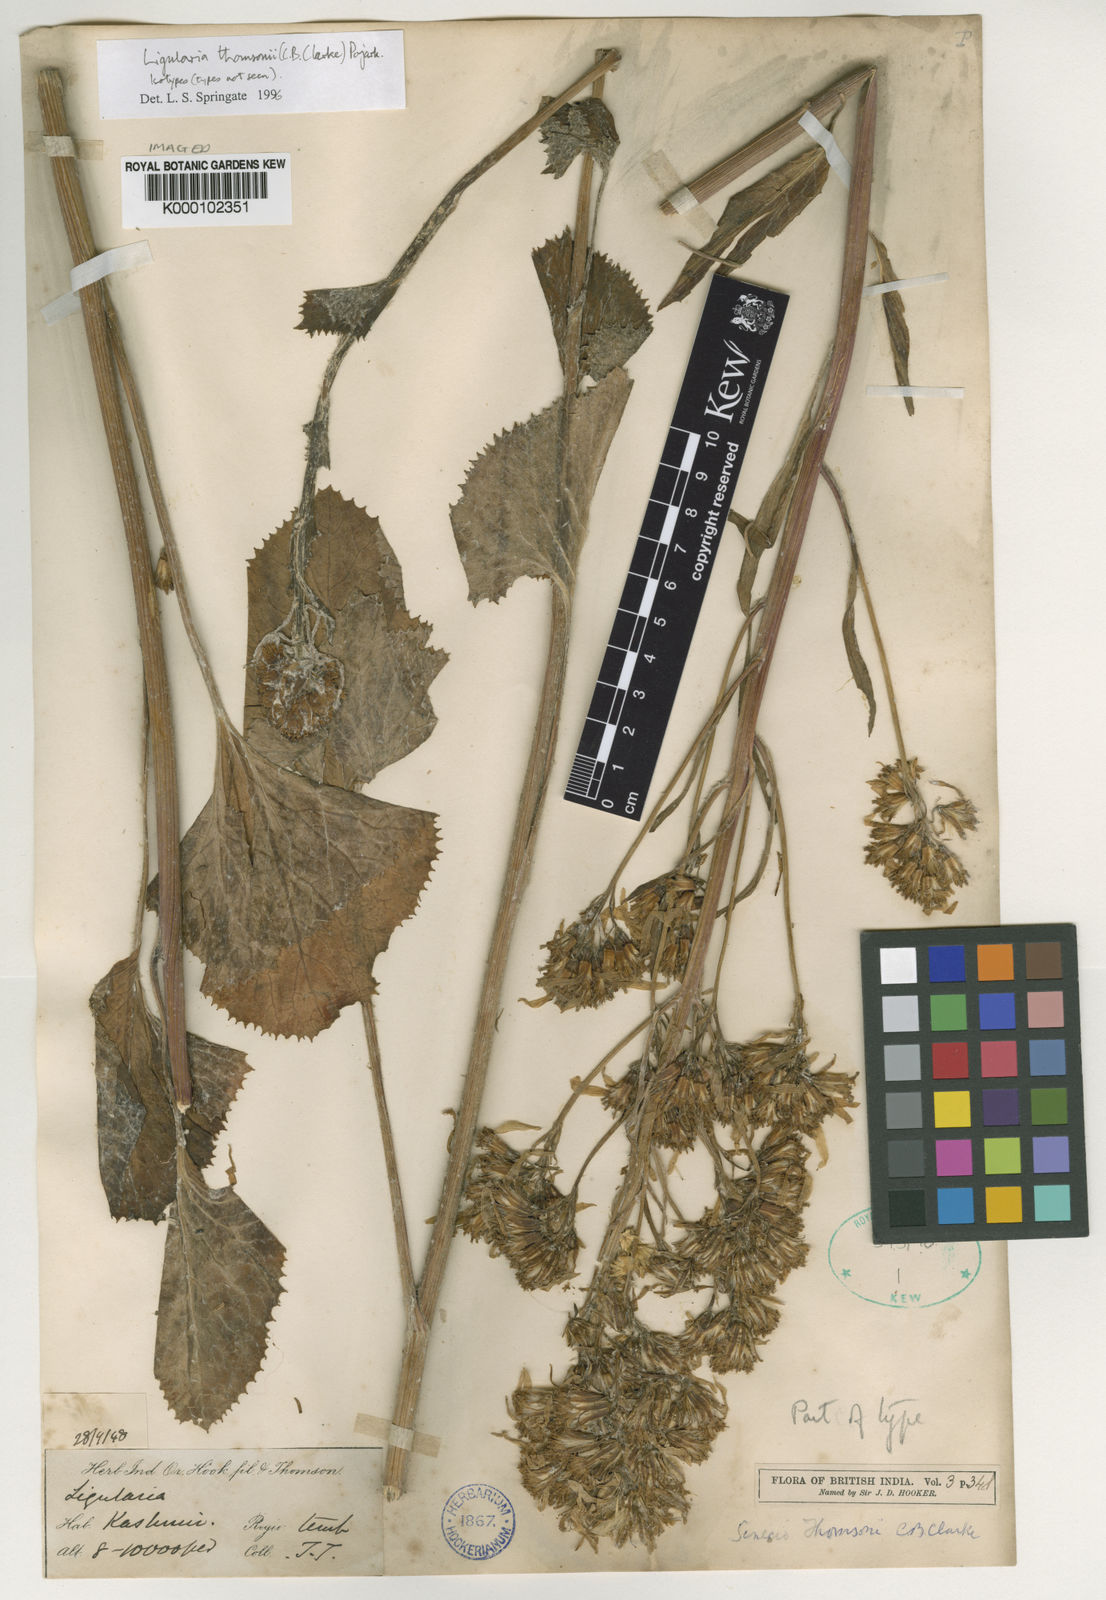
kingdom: Plantae
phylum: Tracheophyta
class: Magnoliopsida
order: Asterales
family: Asteraceae
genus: Vickifunkia
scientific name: Vickifunkia thomsonii
